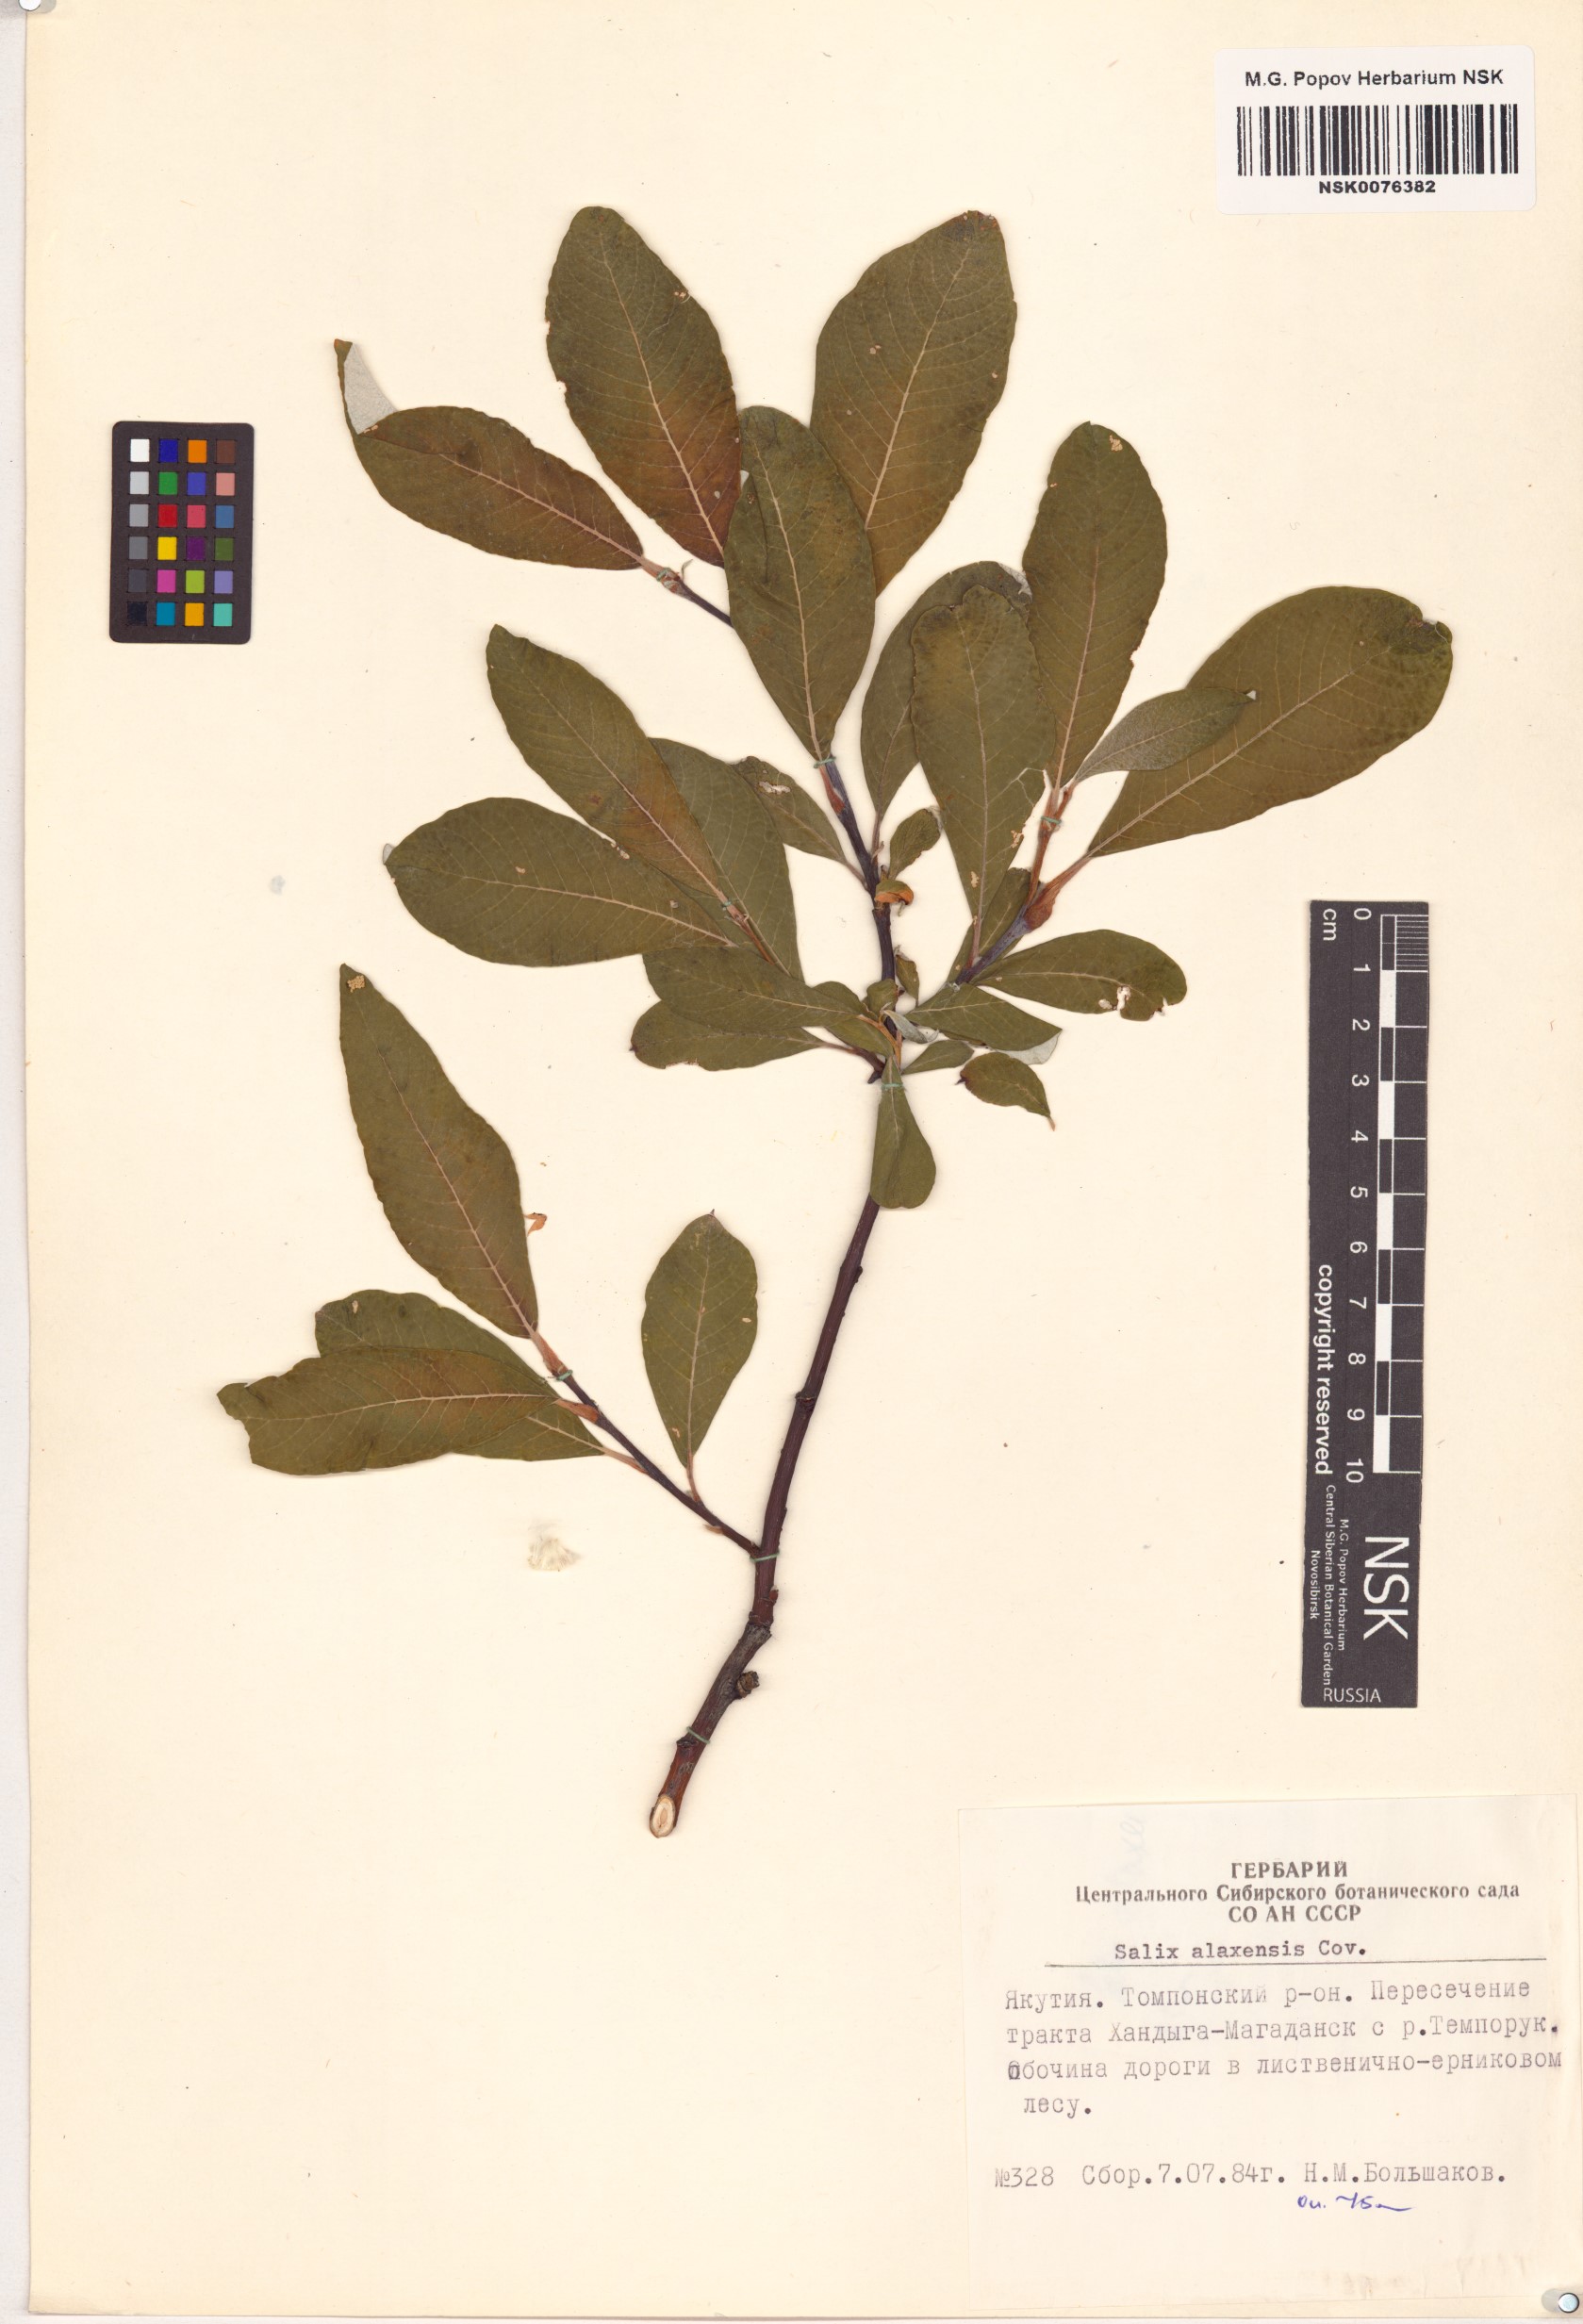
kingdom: Plantae
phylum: Tracheophyta
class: Magnoliopsida
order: Malpighiales
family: Salicaceae
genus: Salix
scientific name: Salix alaxensis
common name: Feltleaf willow
